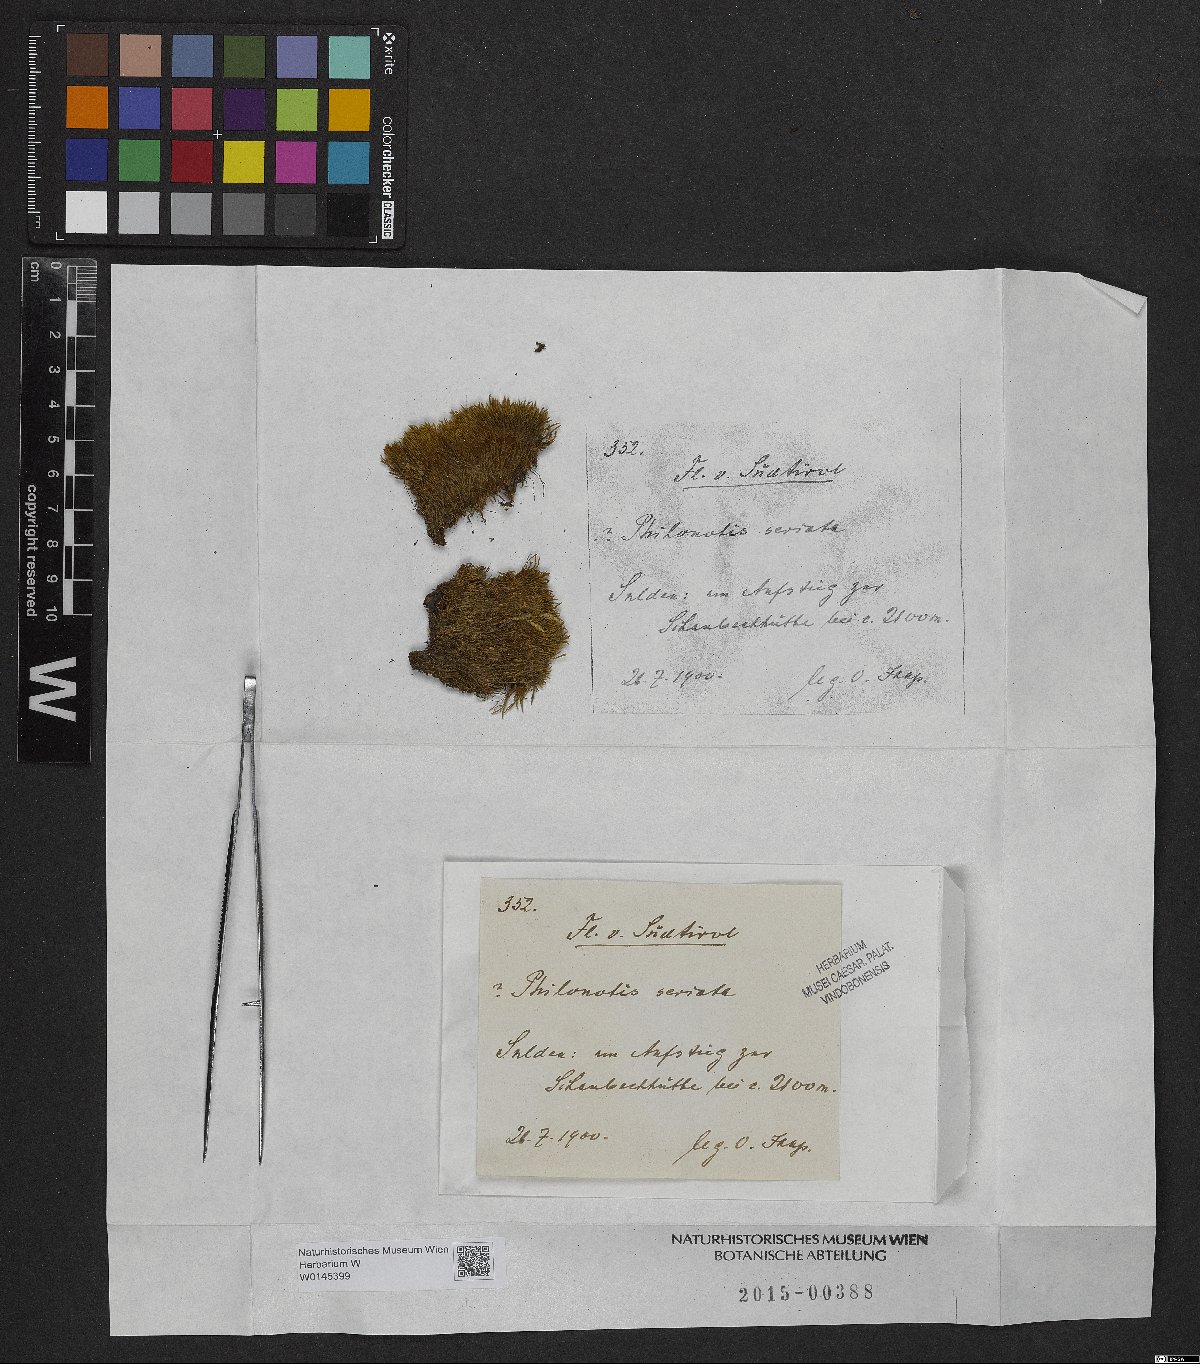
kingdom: Plantae
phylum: Bryophyta
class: Bryopsida
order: Bartramiales
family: Bartramiaceae
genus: Philonotis
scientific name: Philonotis seriata
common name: Spiral apple-moss
